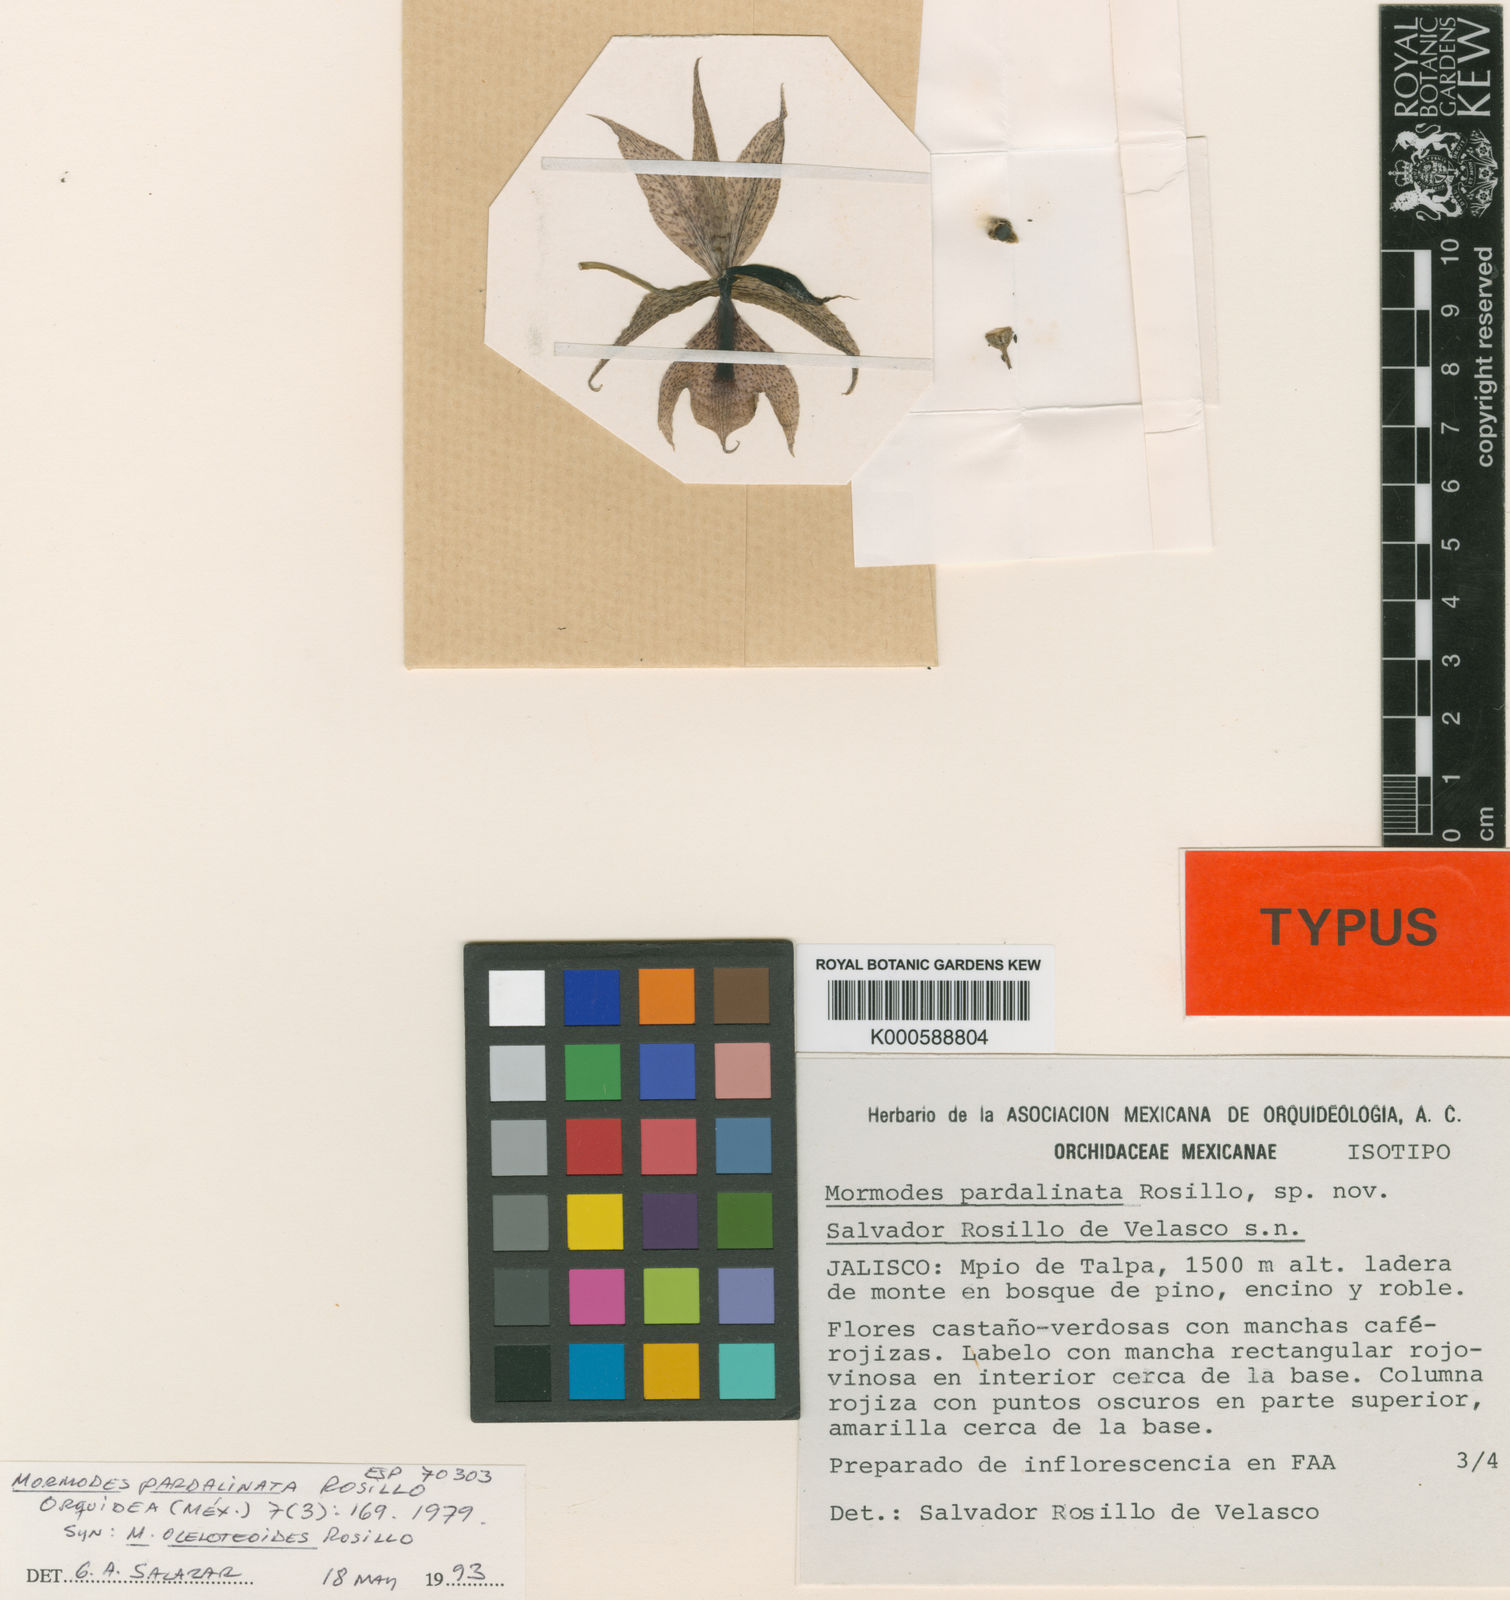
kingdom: Plantae
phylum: Tracheophyta
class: Liliopsida
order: Asparagales
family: Orchidaceae
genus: Mormodes
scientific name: Mormodes pardalinata
